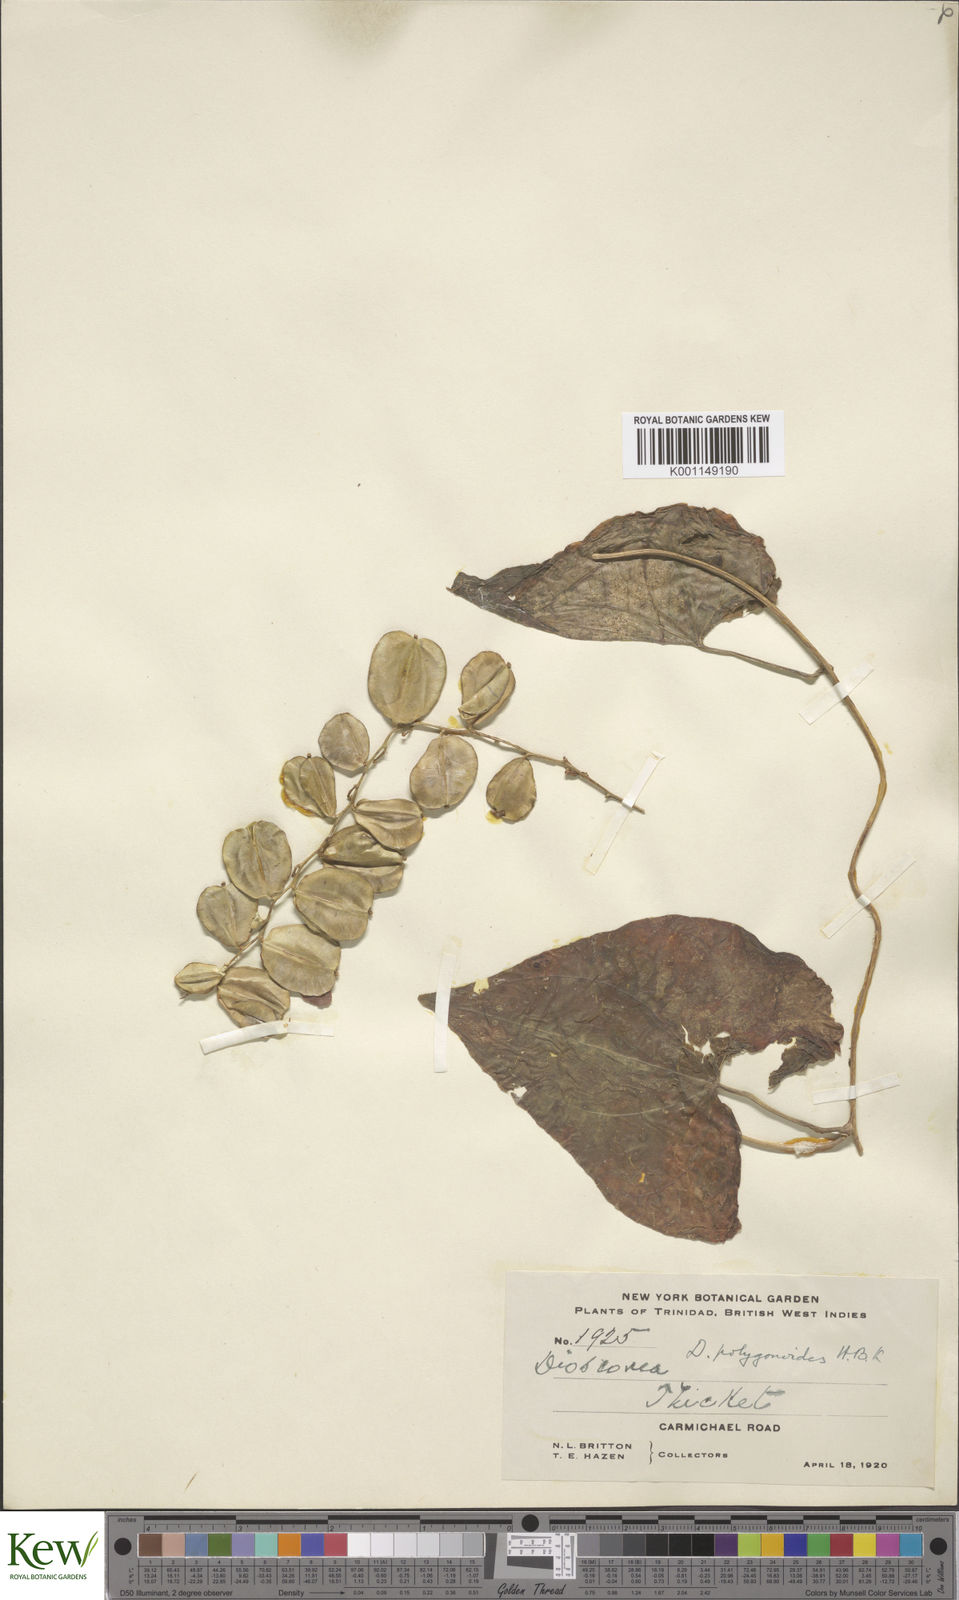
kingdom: Plantae
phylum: Tracheophyta
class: Liliopsida
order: Dioscoreales
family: Dioscoreaceae
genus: Dioscorea
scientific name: Dioscorea polygonoides
